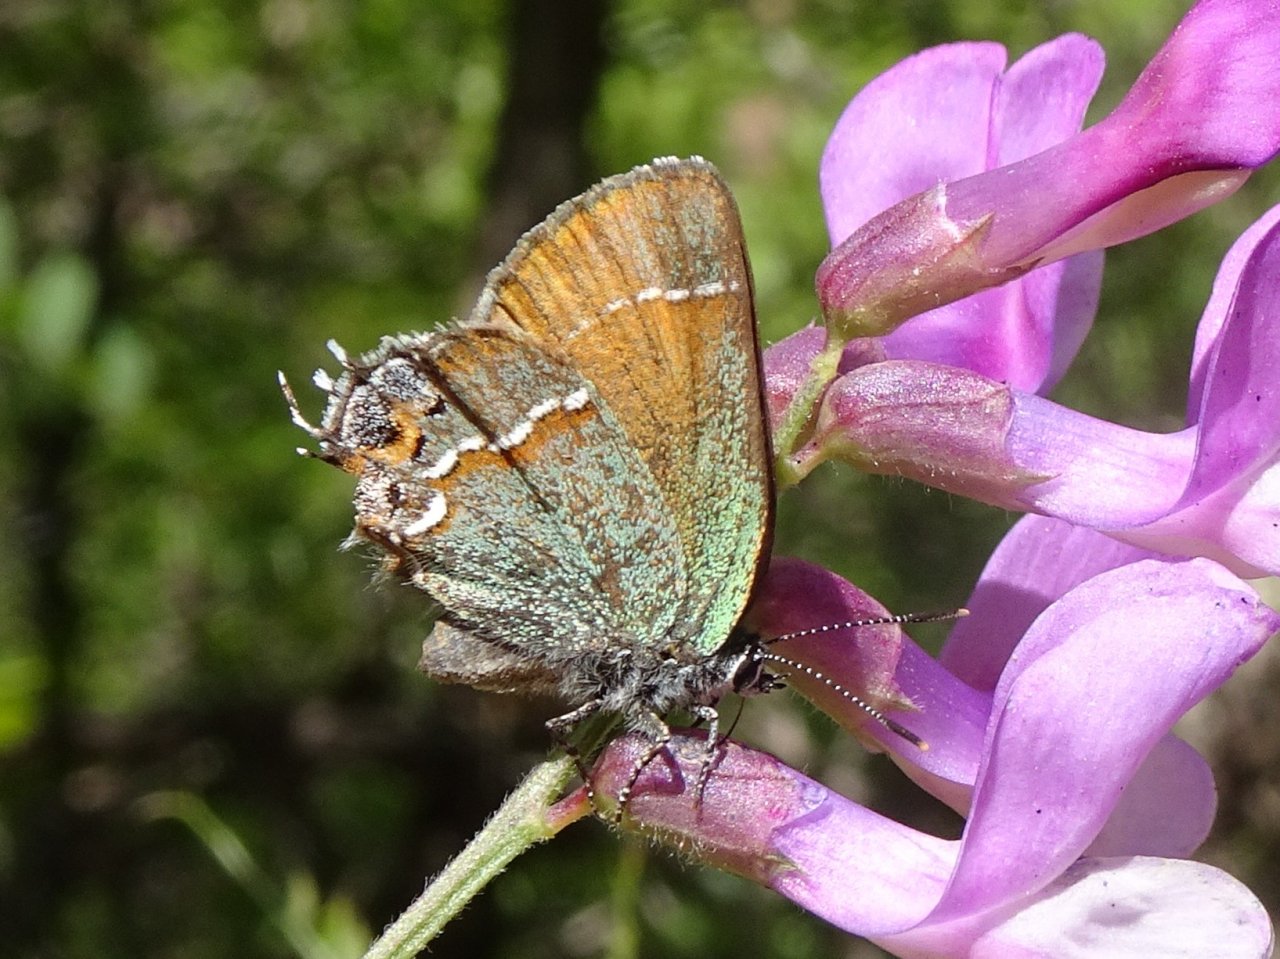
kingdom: Animalia
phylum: Arthropoda
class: Insecta
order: Lepidoptera
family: Lycaenidae
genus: Mitoura
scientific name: Mitoura gryneus
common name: Juniper Hairstreak
